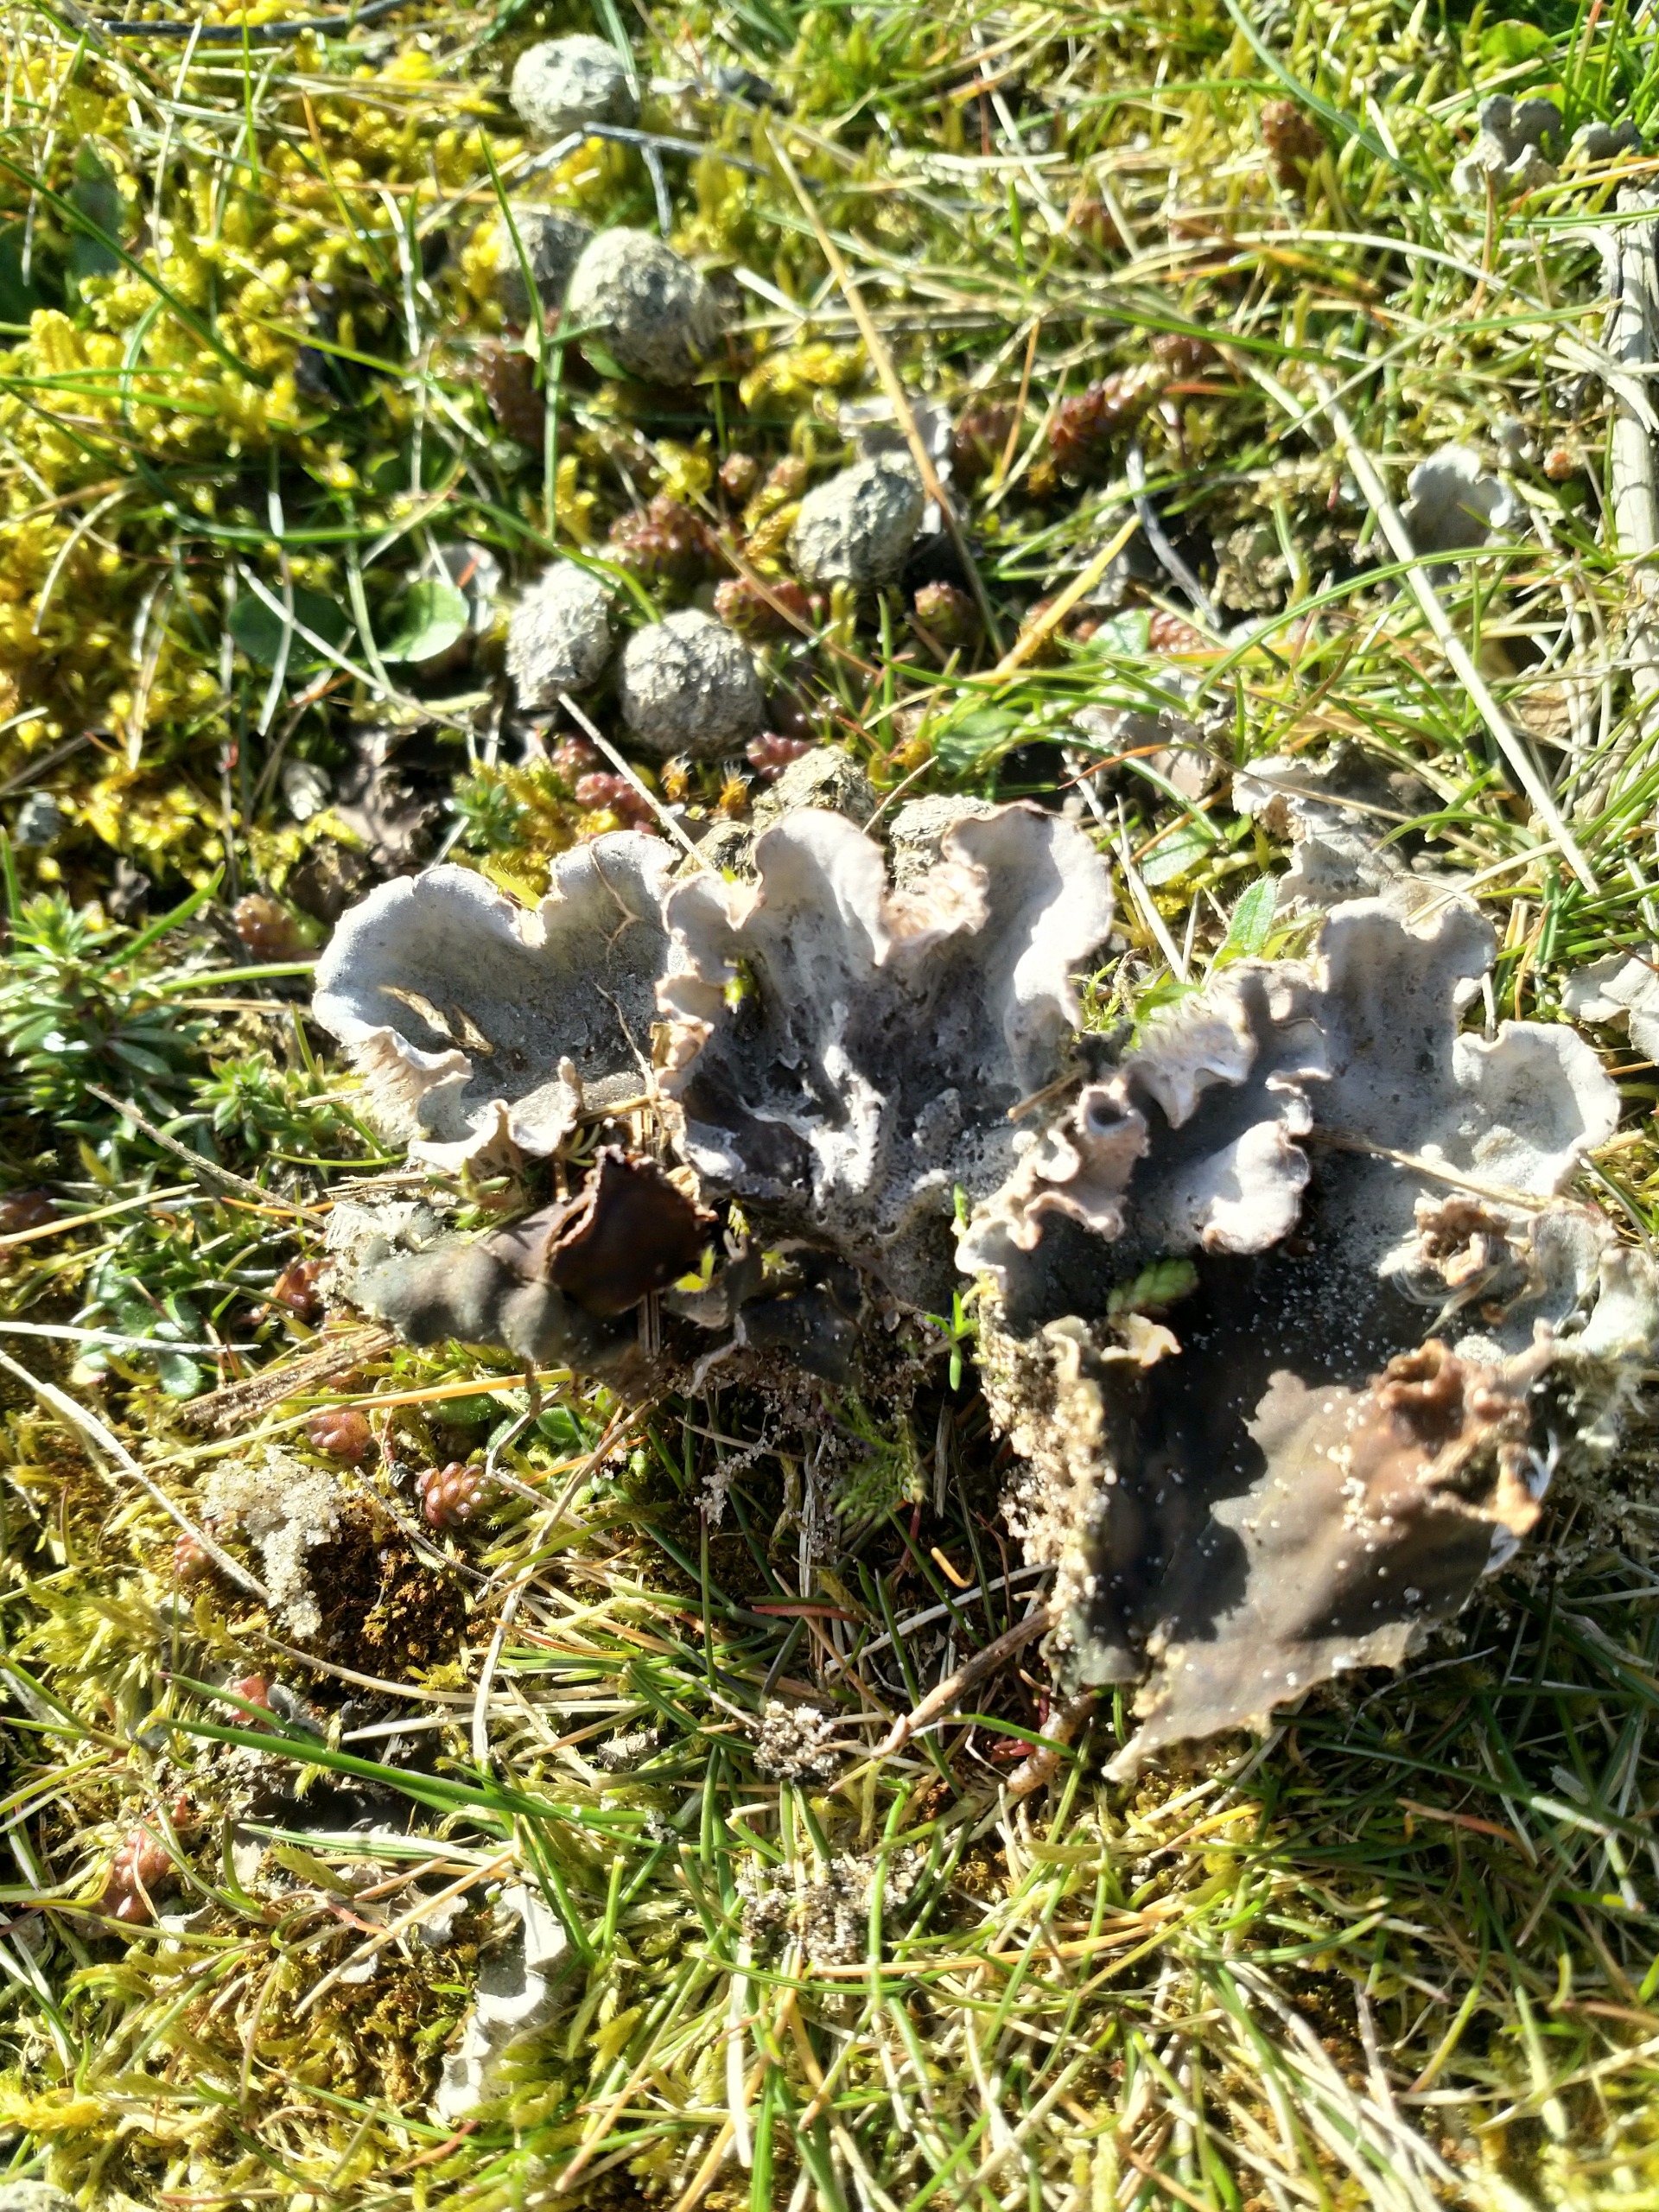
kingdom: Fungi
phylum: Ascomycota
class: Lecanoromycetes
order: Peltigerales
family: Peltigeraceae
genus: Peltigera
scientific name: Peltigera canina
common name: Hunde-skjoldlav
